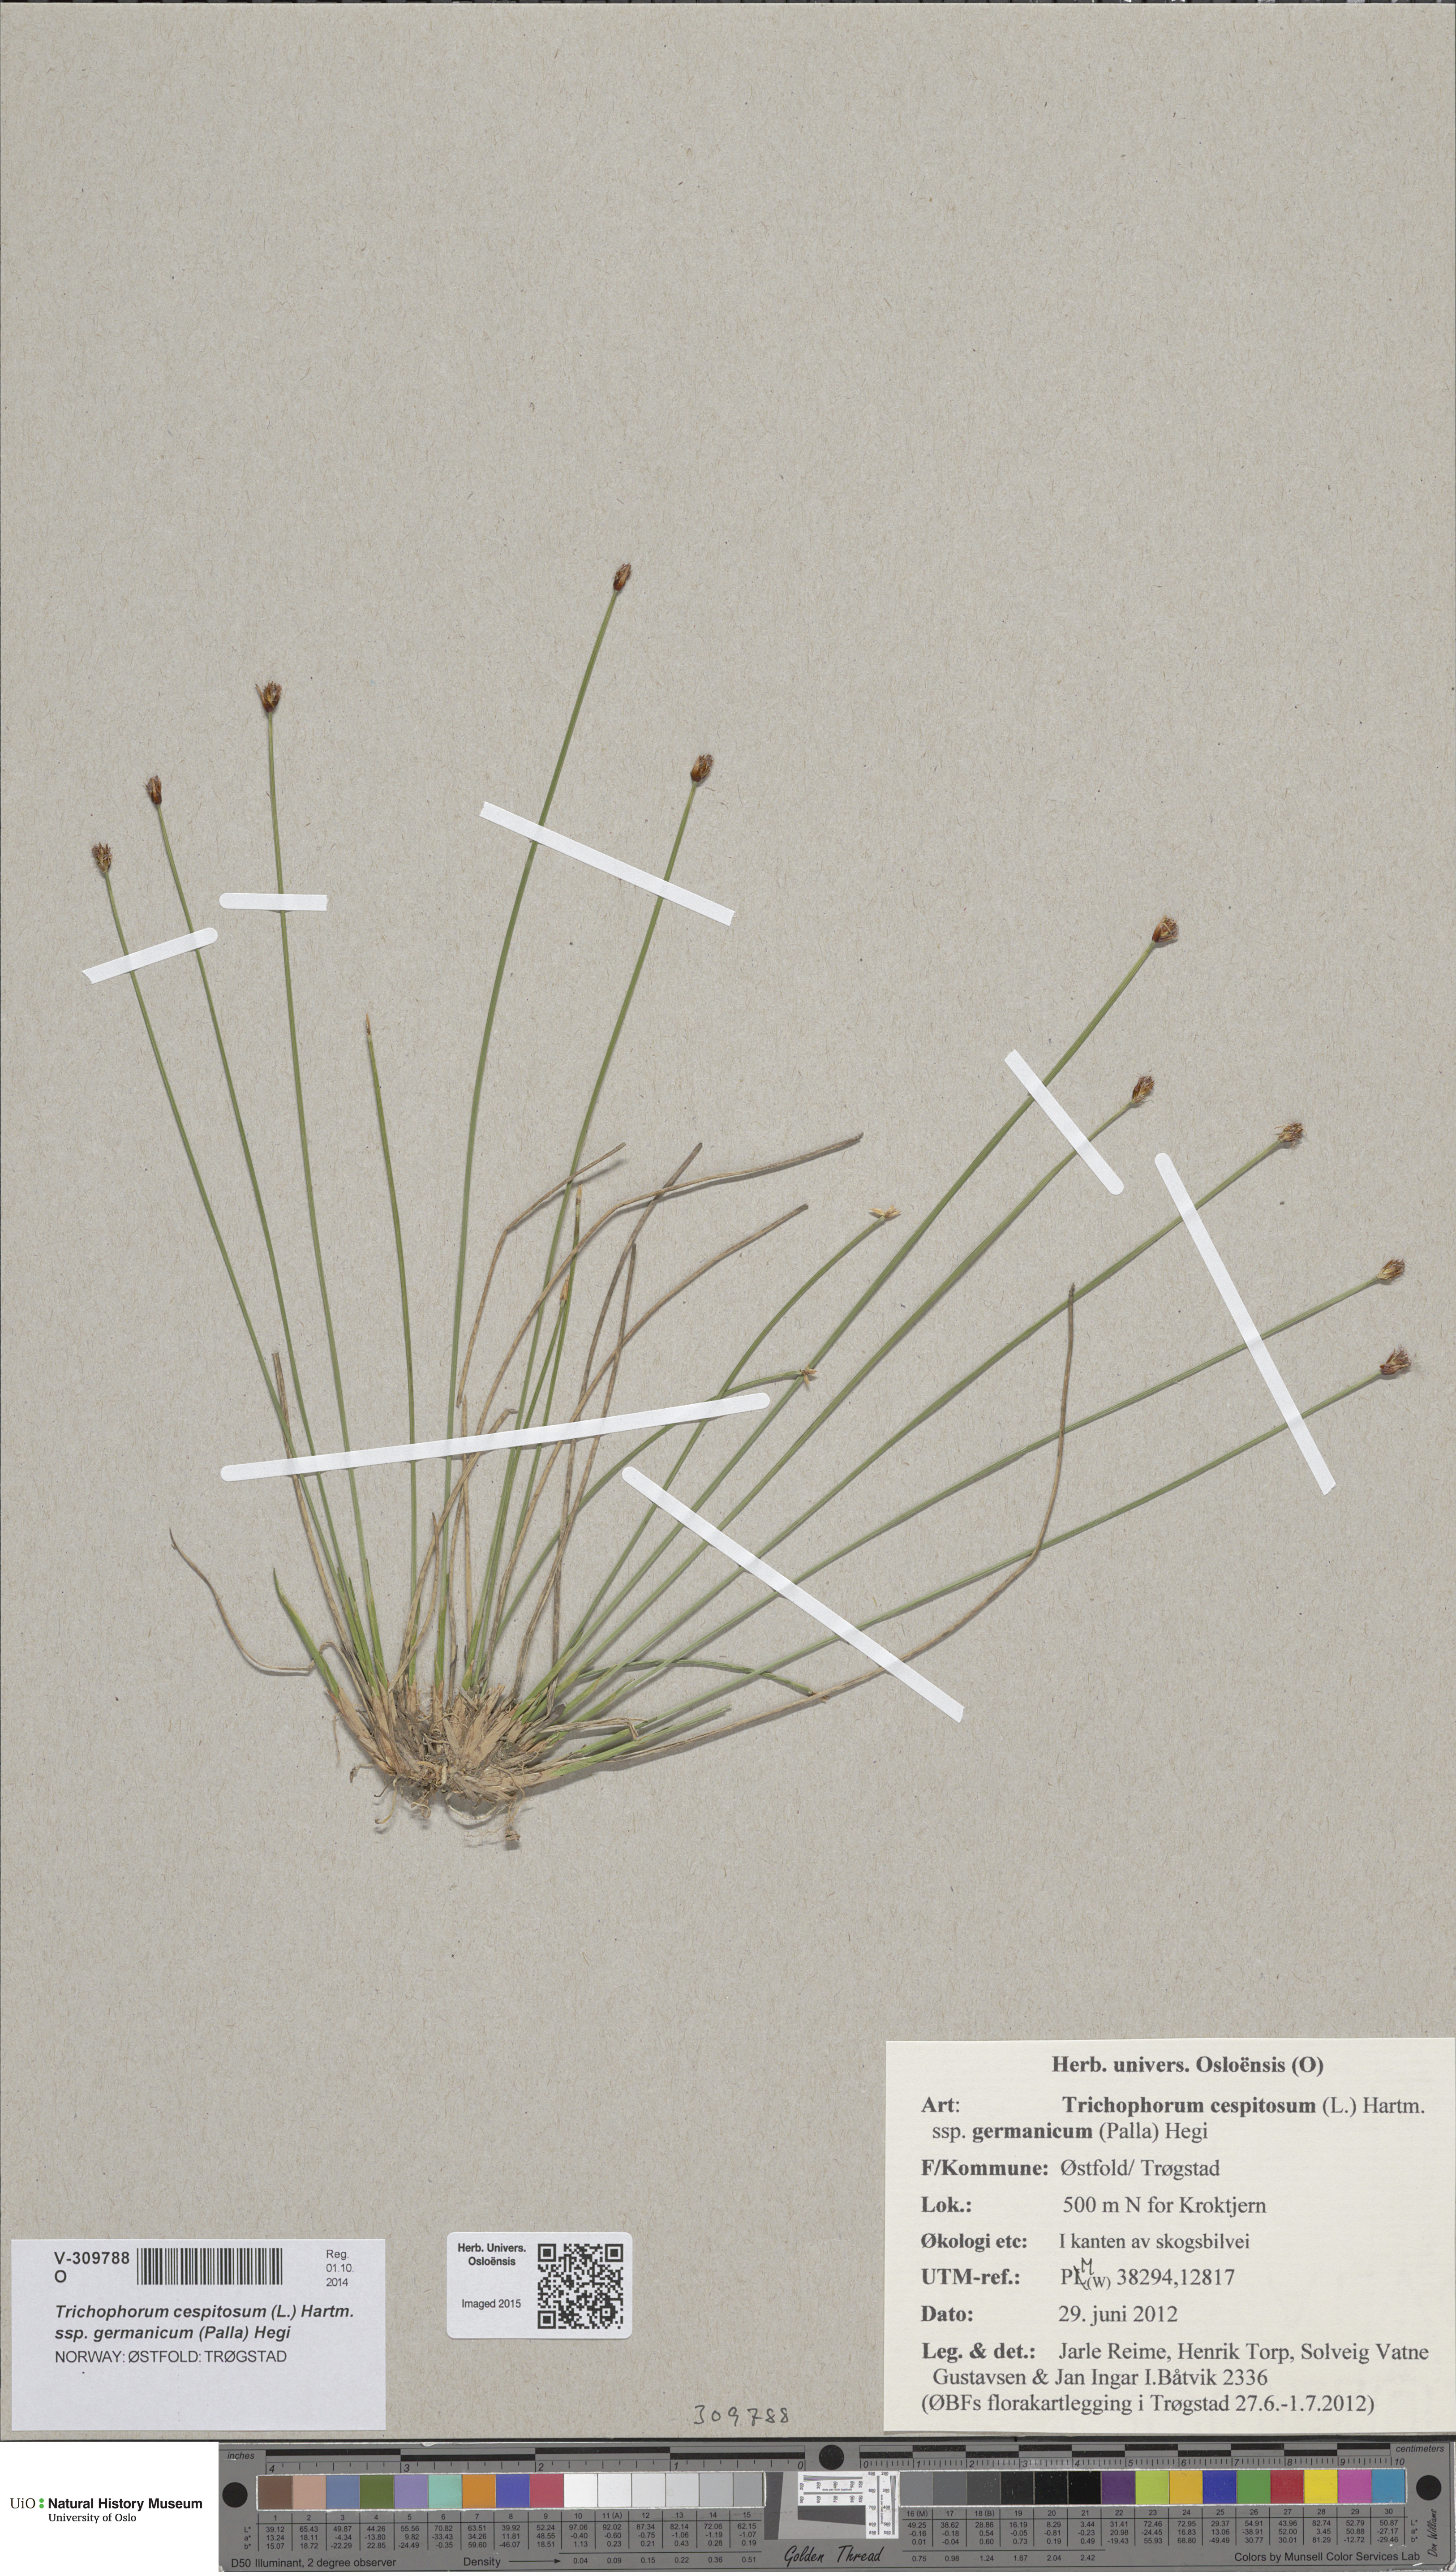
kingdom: Plantae
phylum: Tracheophyta
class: Liliopsida
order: Poales
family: Cyperaceae
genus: Trichophorum
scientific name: Trichophorum cespitosum
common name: Cespitose bulrush
